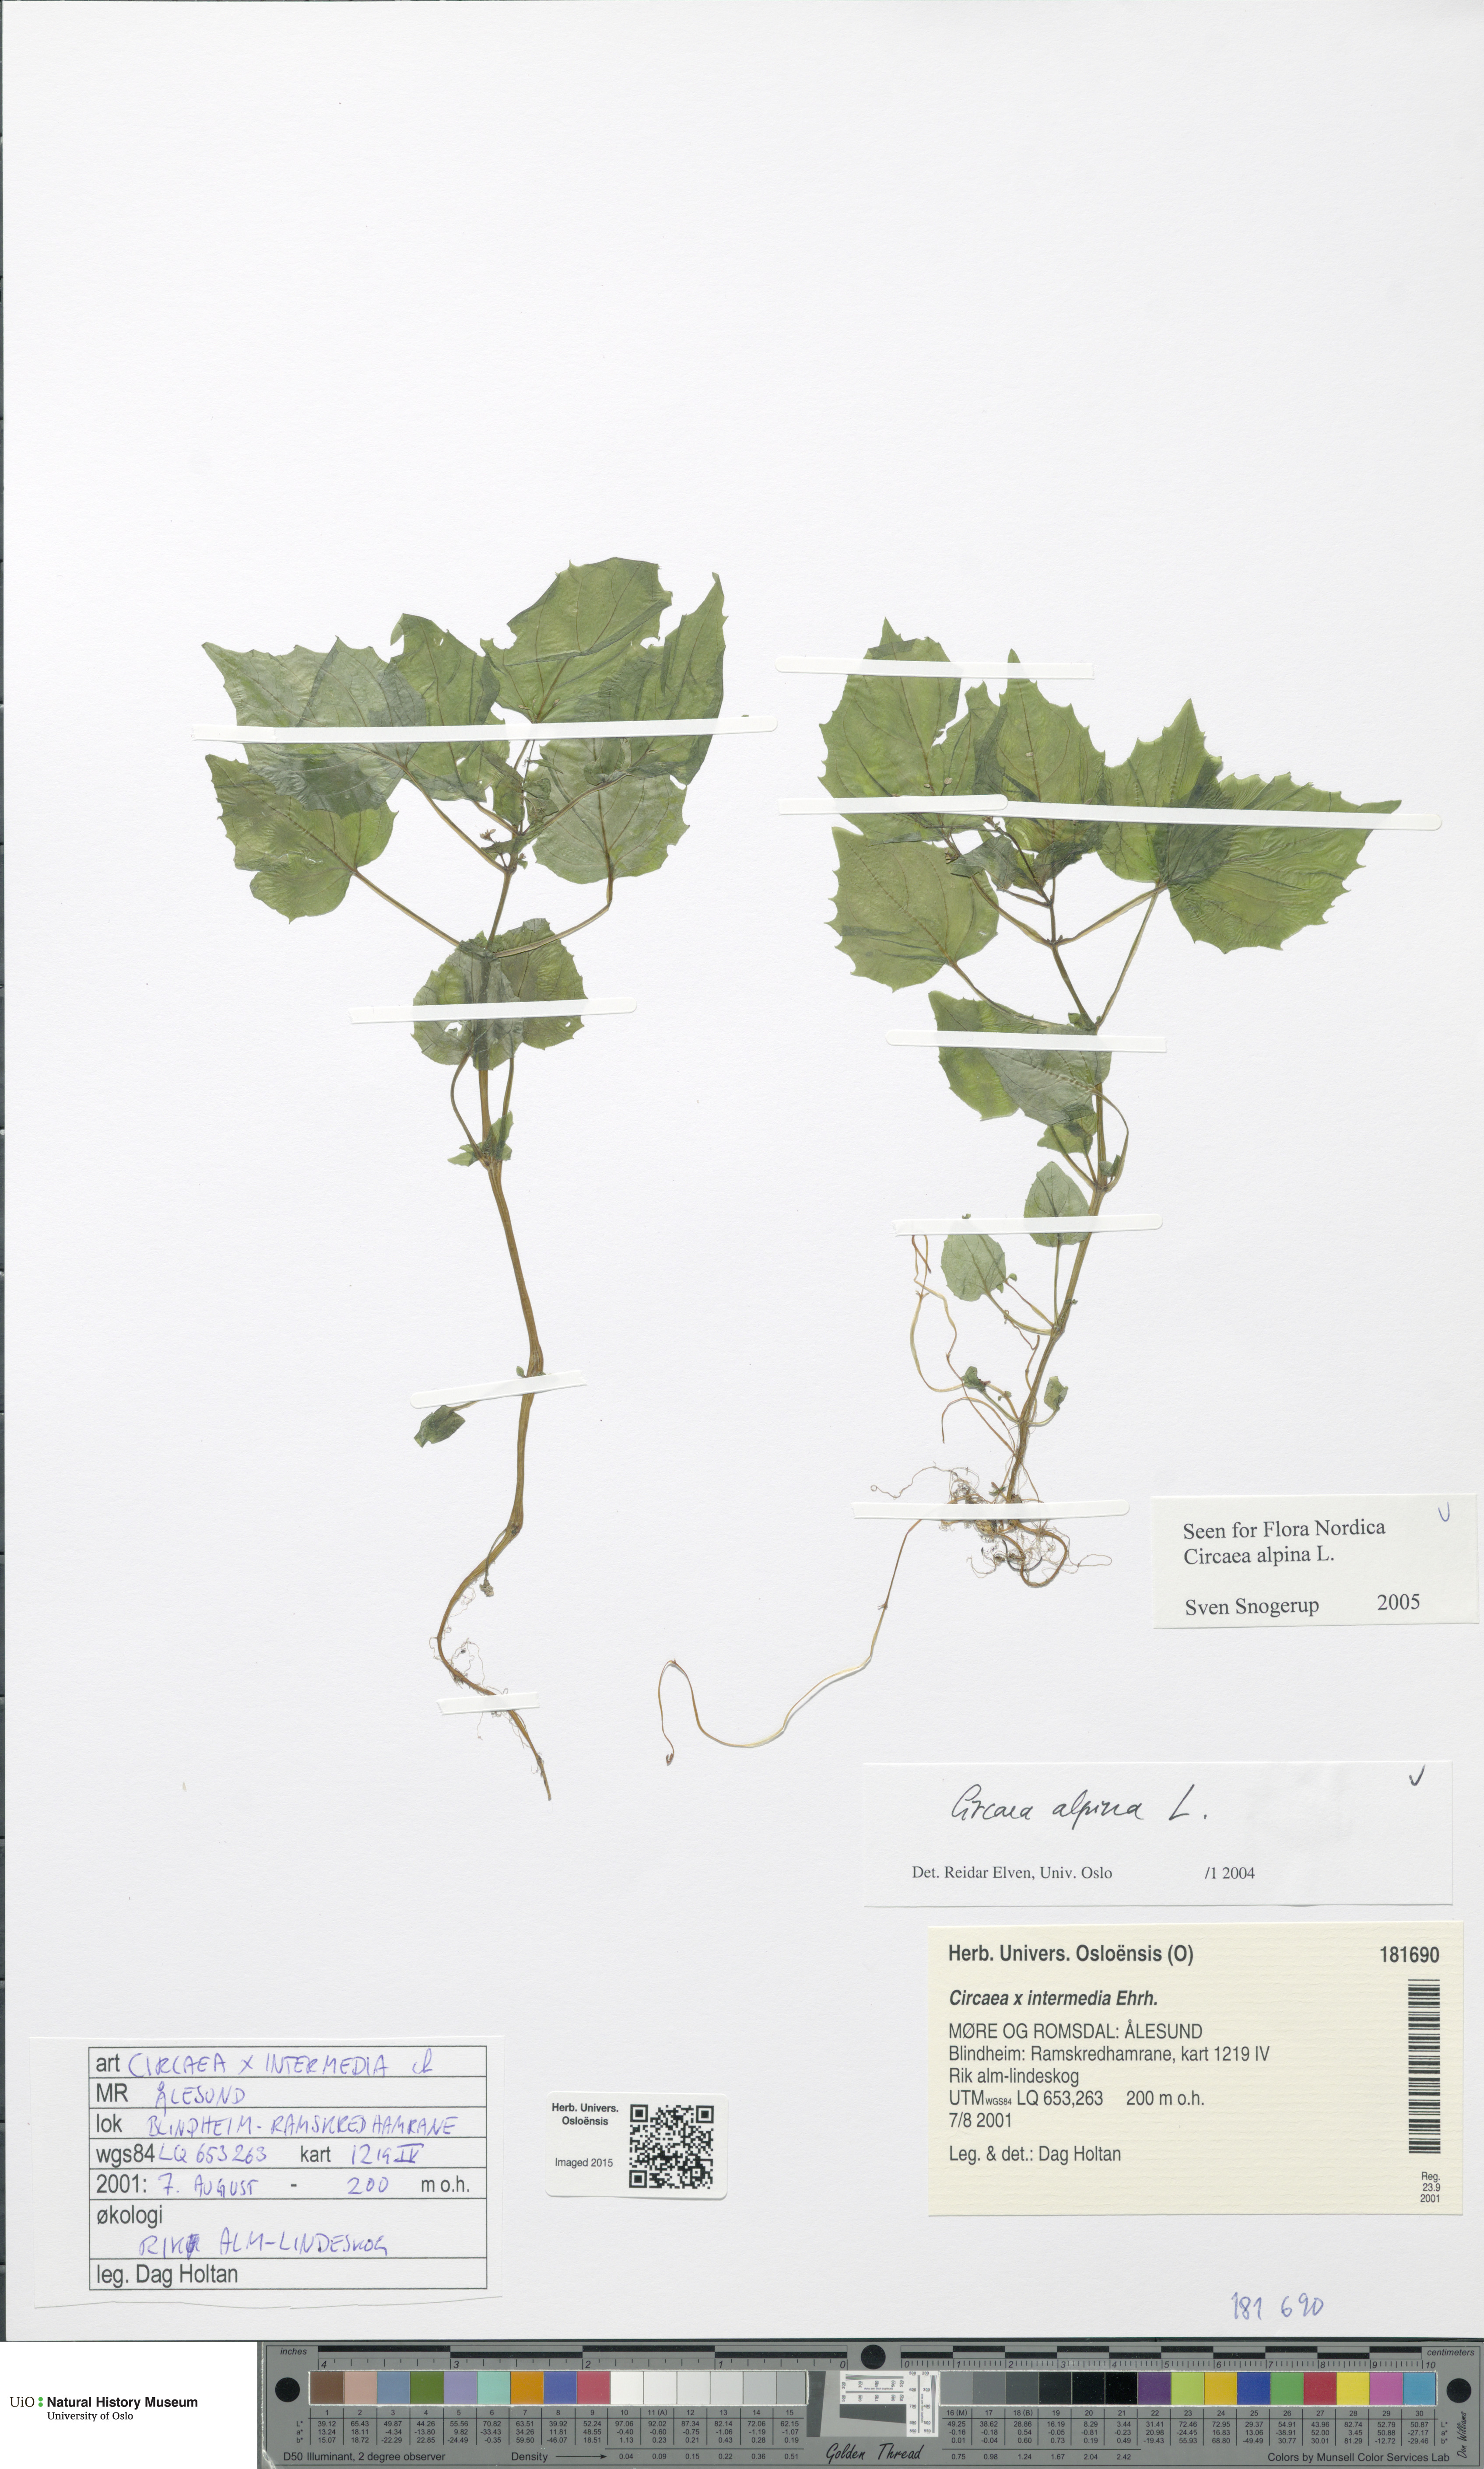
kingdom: Plantae
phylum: Tracheophyta
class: Magnoliopsida
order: Myrtales
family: Onagraceae
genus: Circaea
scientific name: Circaea alpina
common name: Alpine enchanter's-nightshade
